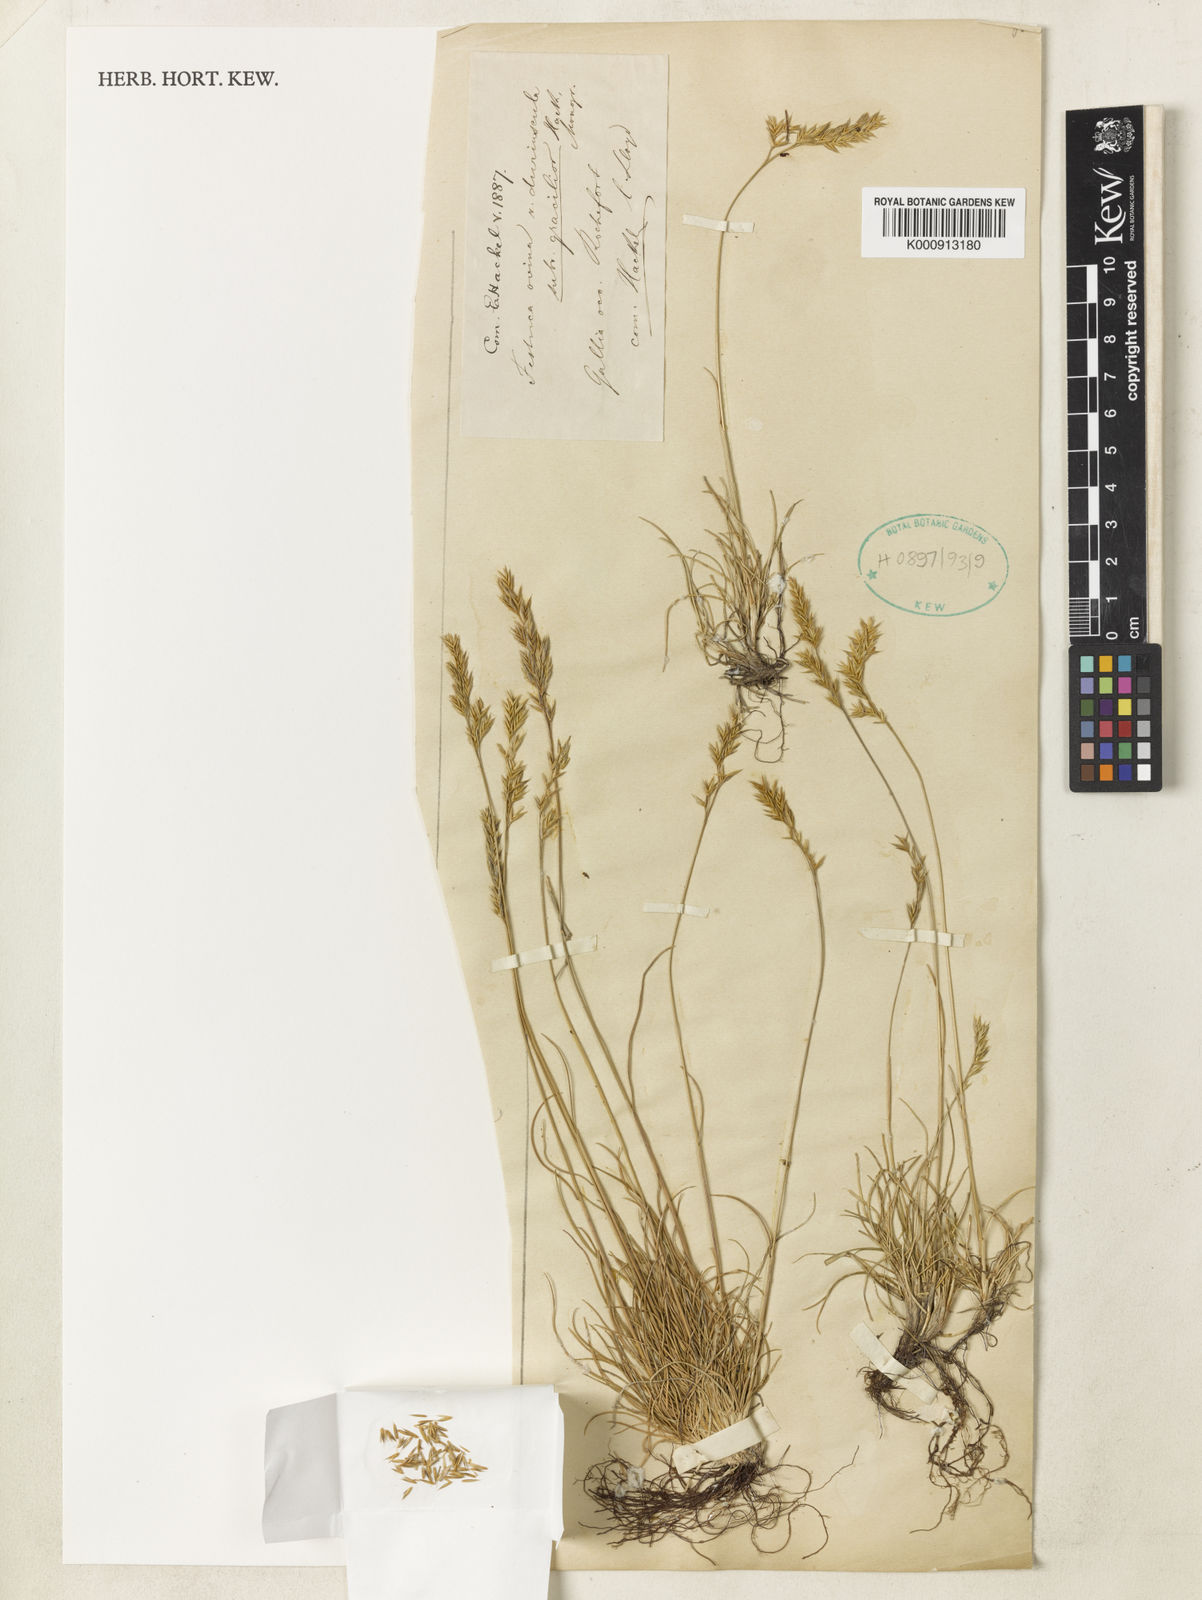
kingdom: Plantae
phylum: Tracheophyta
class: Liliopsida
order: Poales
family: Poaceae
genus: Festuca
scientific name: Festuca gracilior
